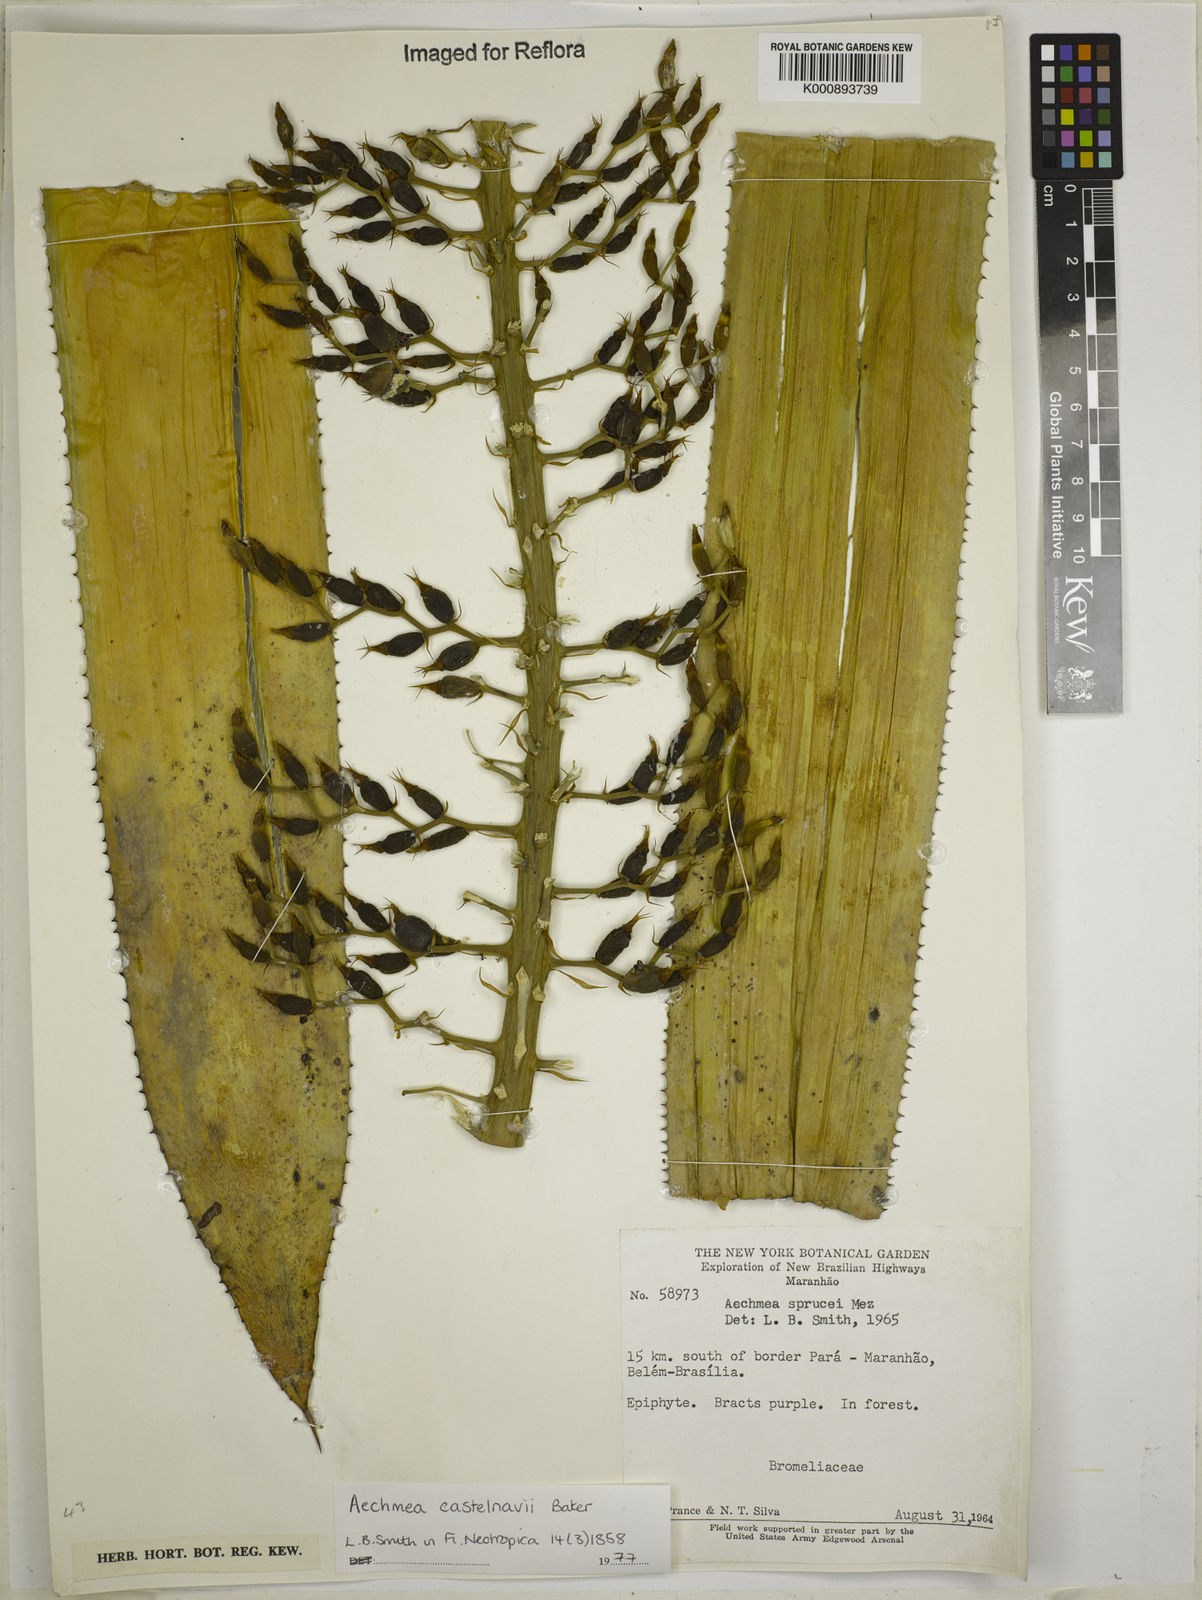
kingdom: Plantae
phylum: Tracheophyta
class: Liliopsida
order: Poales
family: Bromeliaceae
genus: Aechmea
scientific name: Aechmea castelnavii
